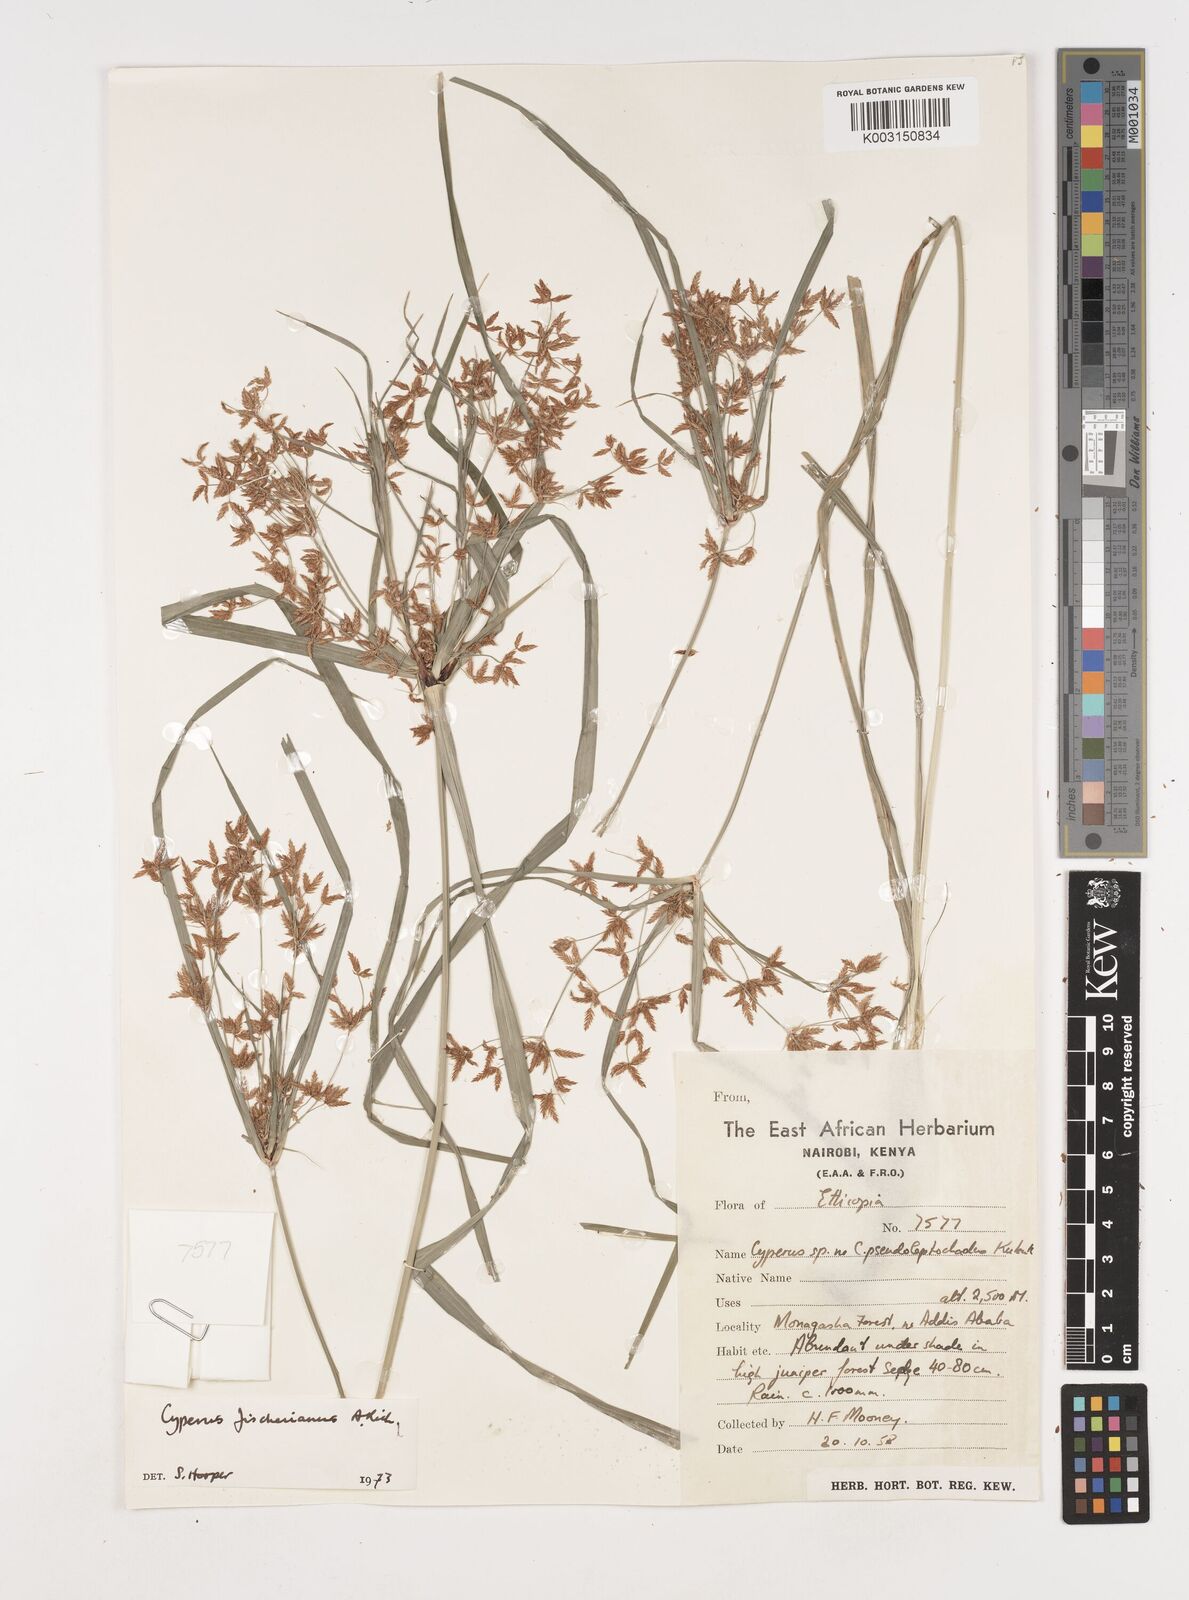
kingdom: Plantae
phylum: Tracheophyta
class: Liliopsida
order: Poales
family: Cyperaceae
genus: Cyperus
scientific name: Cyperus fischerianus
